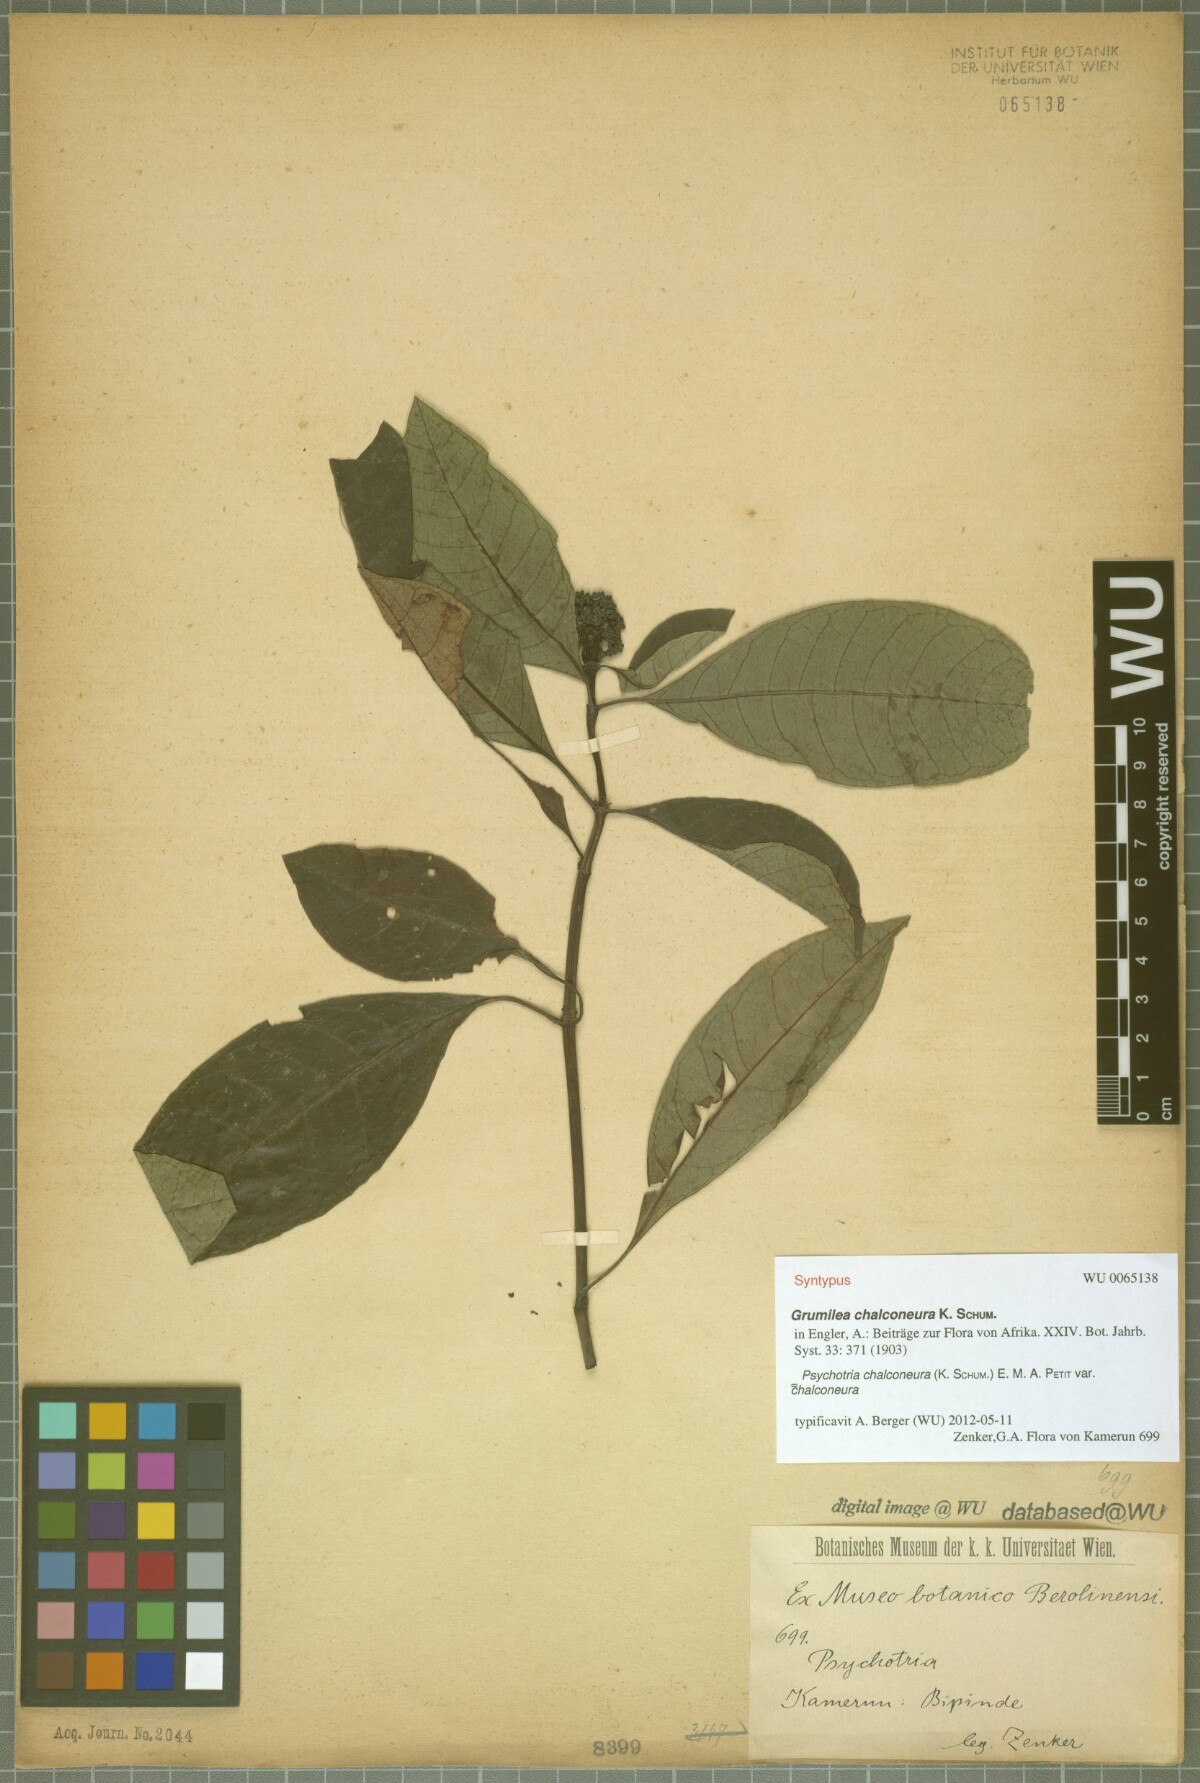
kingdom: Plantae
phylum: Tracheophyta
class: Magnoliopsida
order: Gentianales
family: Rubiaceae
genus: Psychotria
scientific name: Psychotria chalconeura
